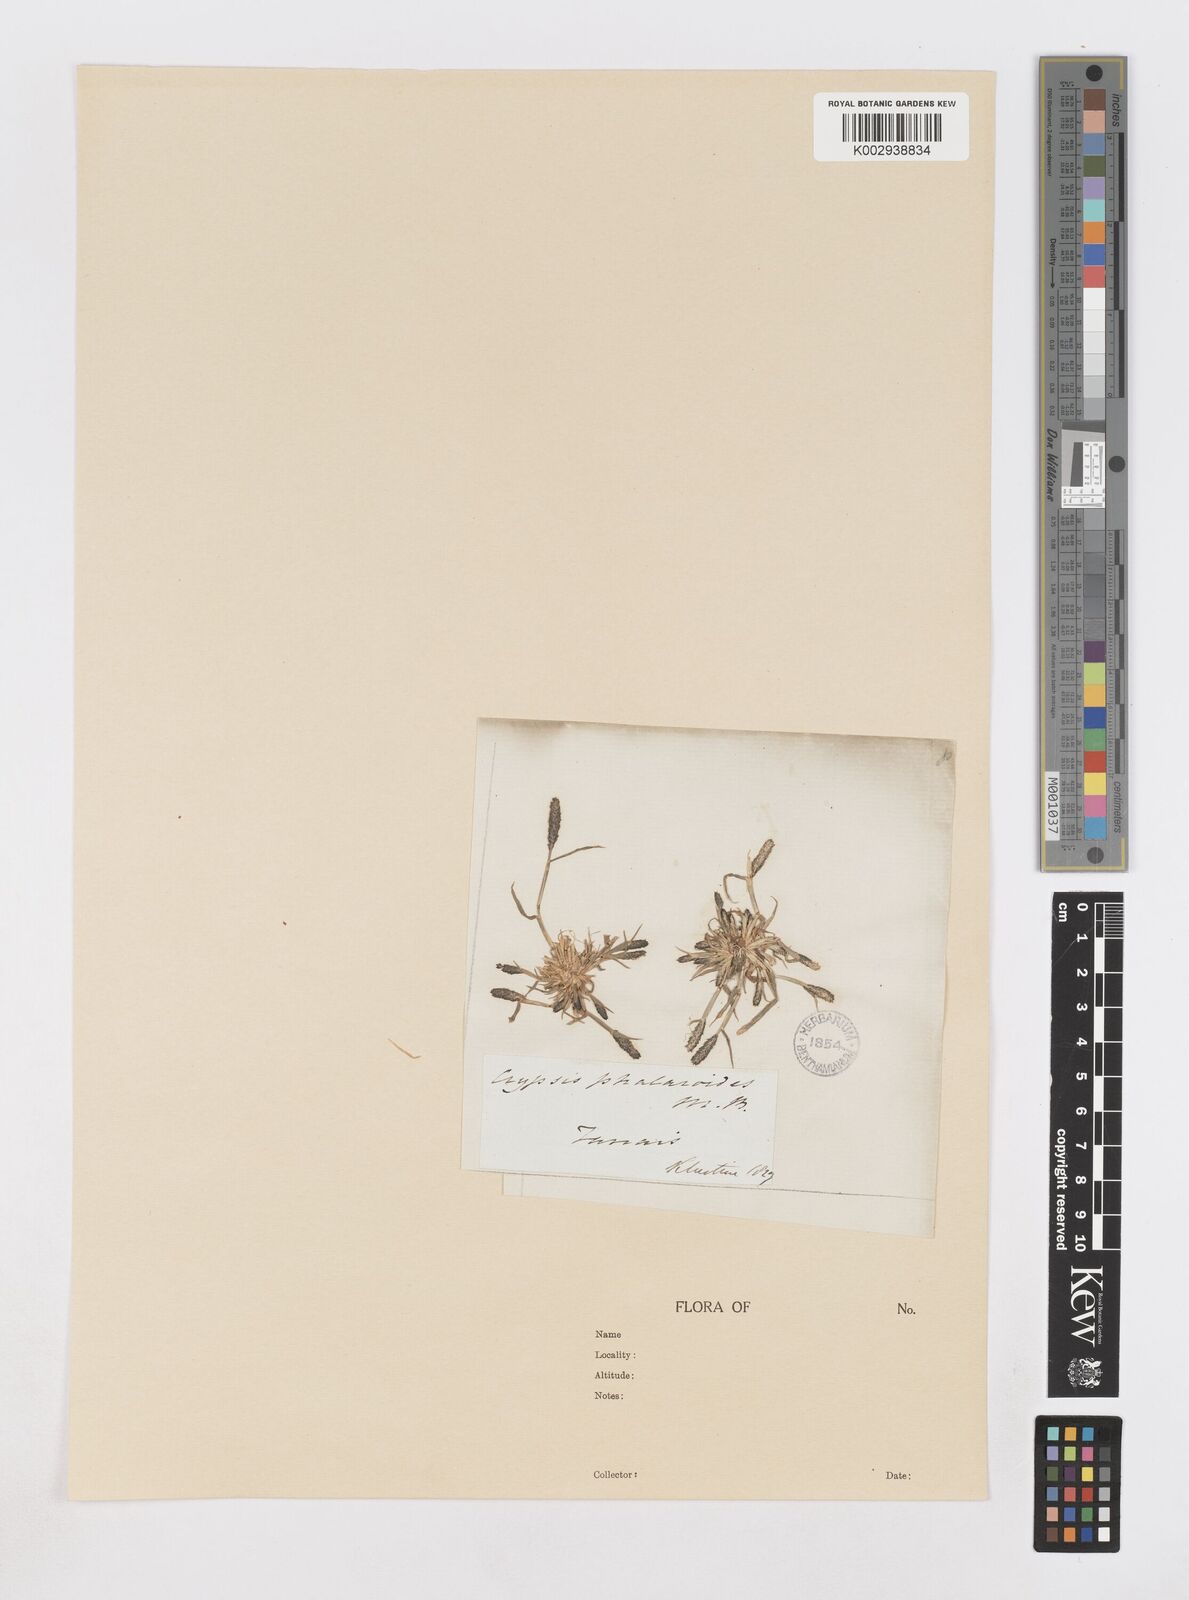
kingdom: Plantae
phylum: Tracheophyta
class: Liliopsida
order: Poales
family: Poaceae
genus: Sporobolus
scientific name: Sporobolus alopecuroides
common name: Foxtail pricklegrass
